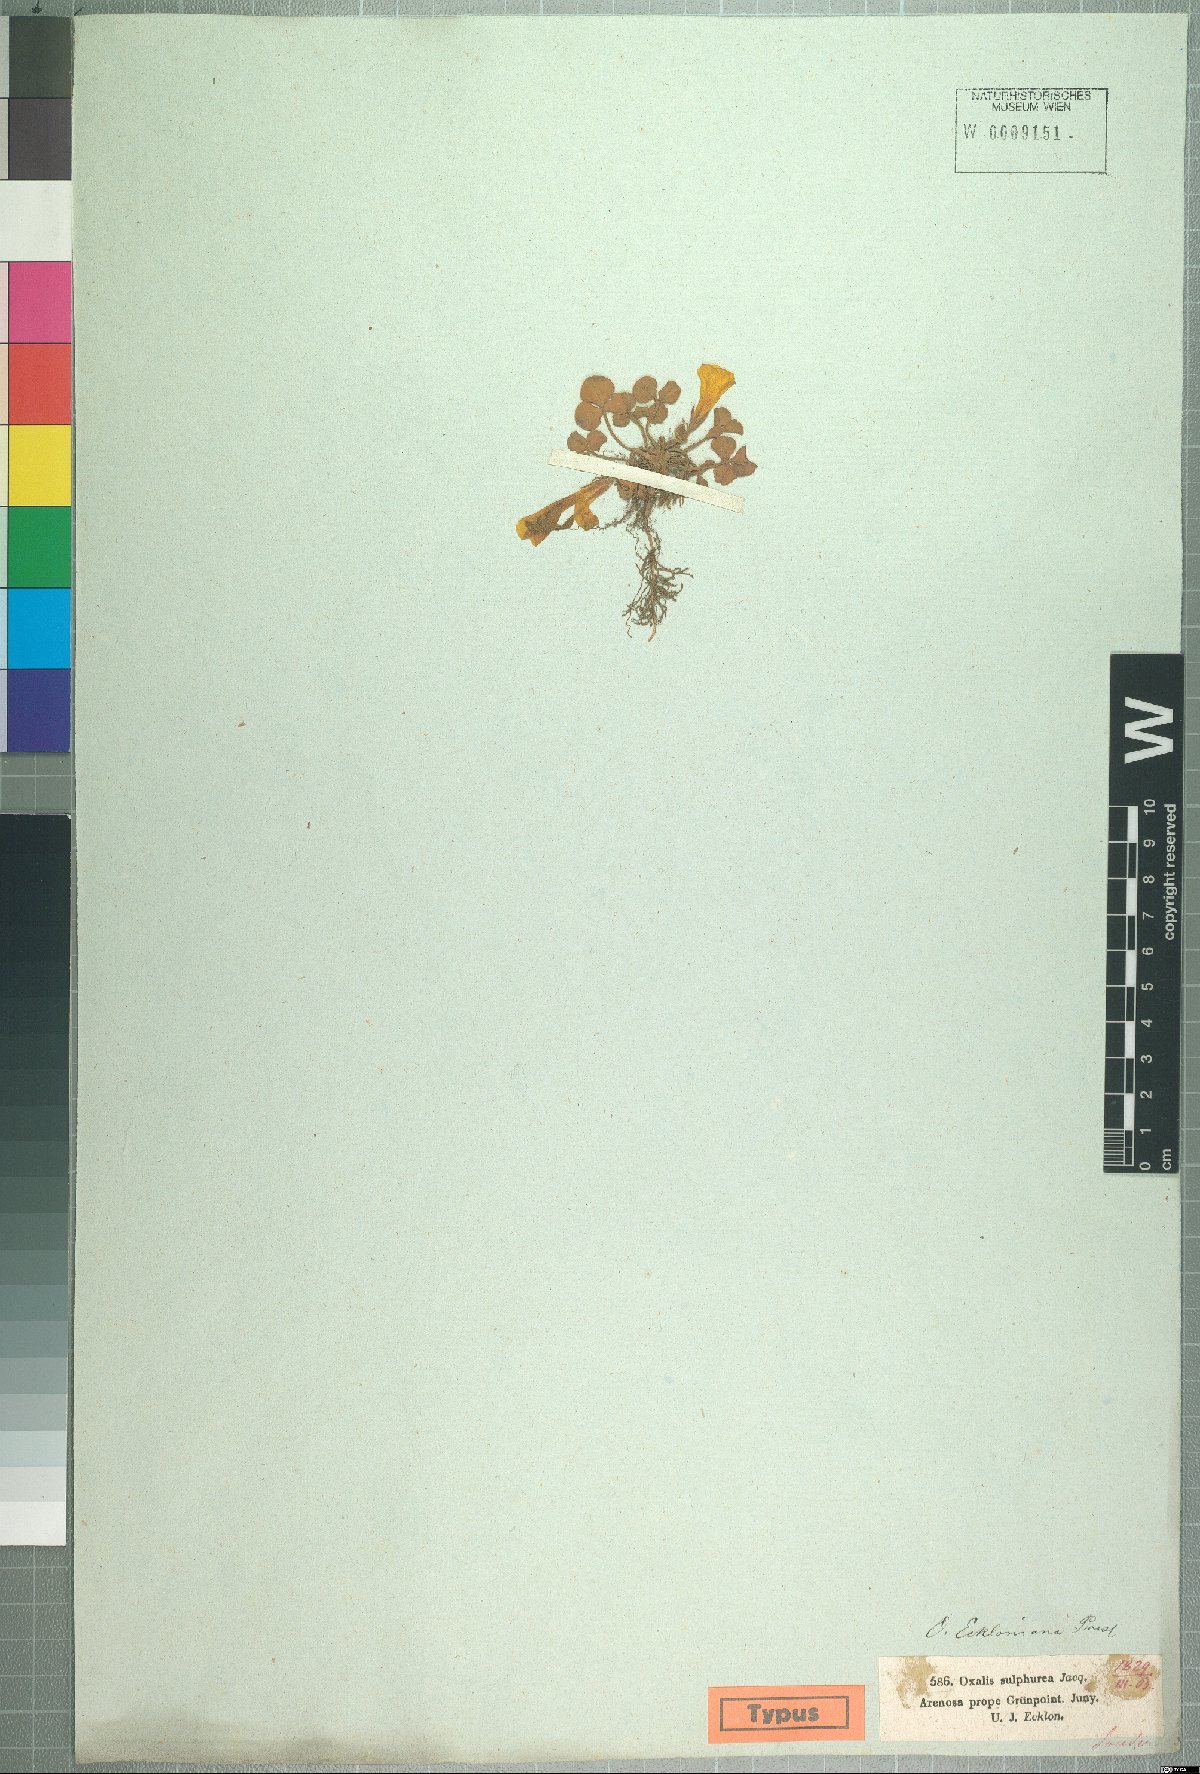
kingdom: Plantae
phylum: Tracheophyta
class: Magnoliopsida
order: Oxalidales
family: Oxalidaceae
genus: Oxalis
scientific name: Oxalis eckloniana
